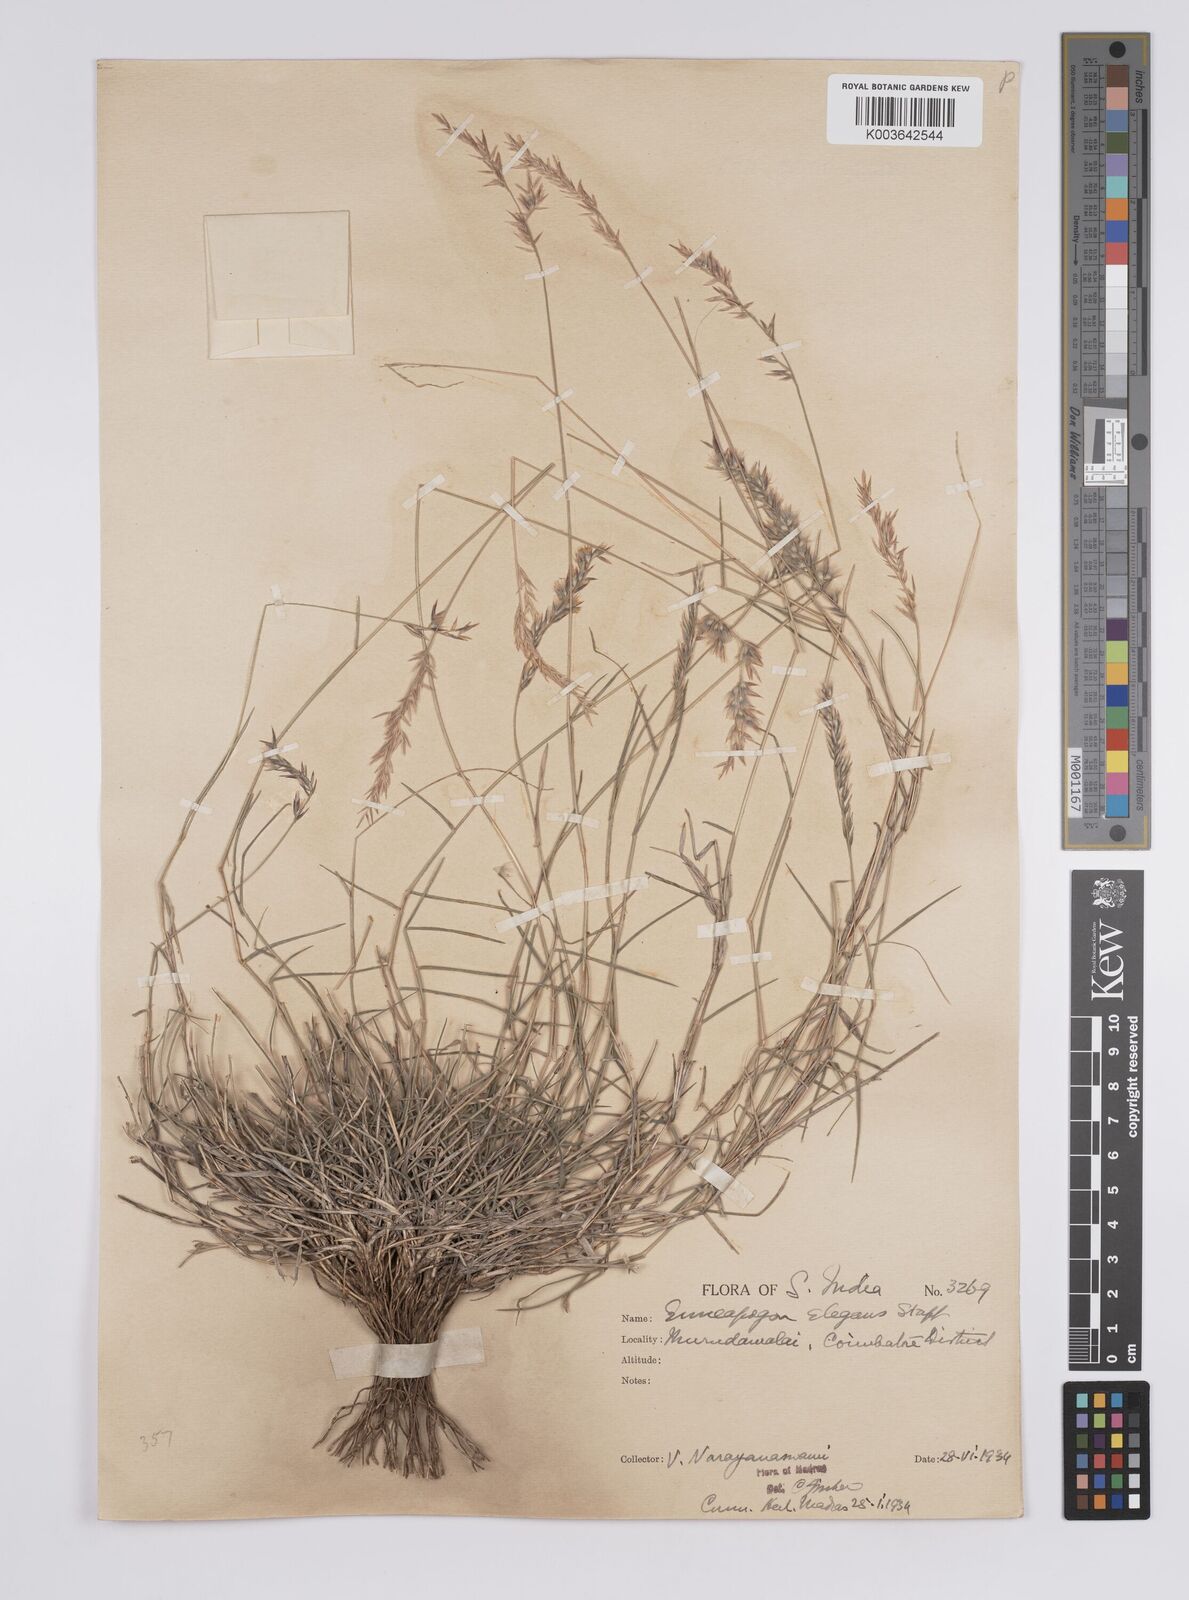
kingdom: Plantae
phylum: Tracheophyta
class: Liliopsida
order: Poales
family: Poaceae
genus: Enneapogon
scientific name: Enneapogon persicus
